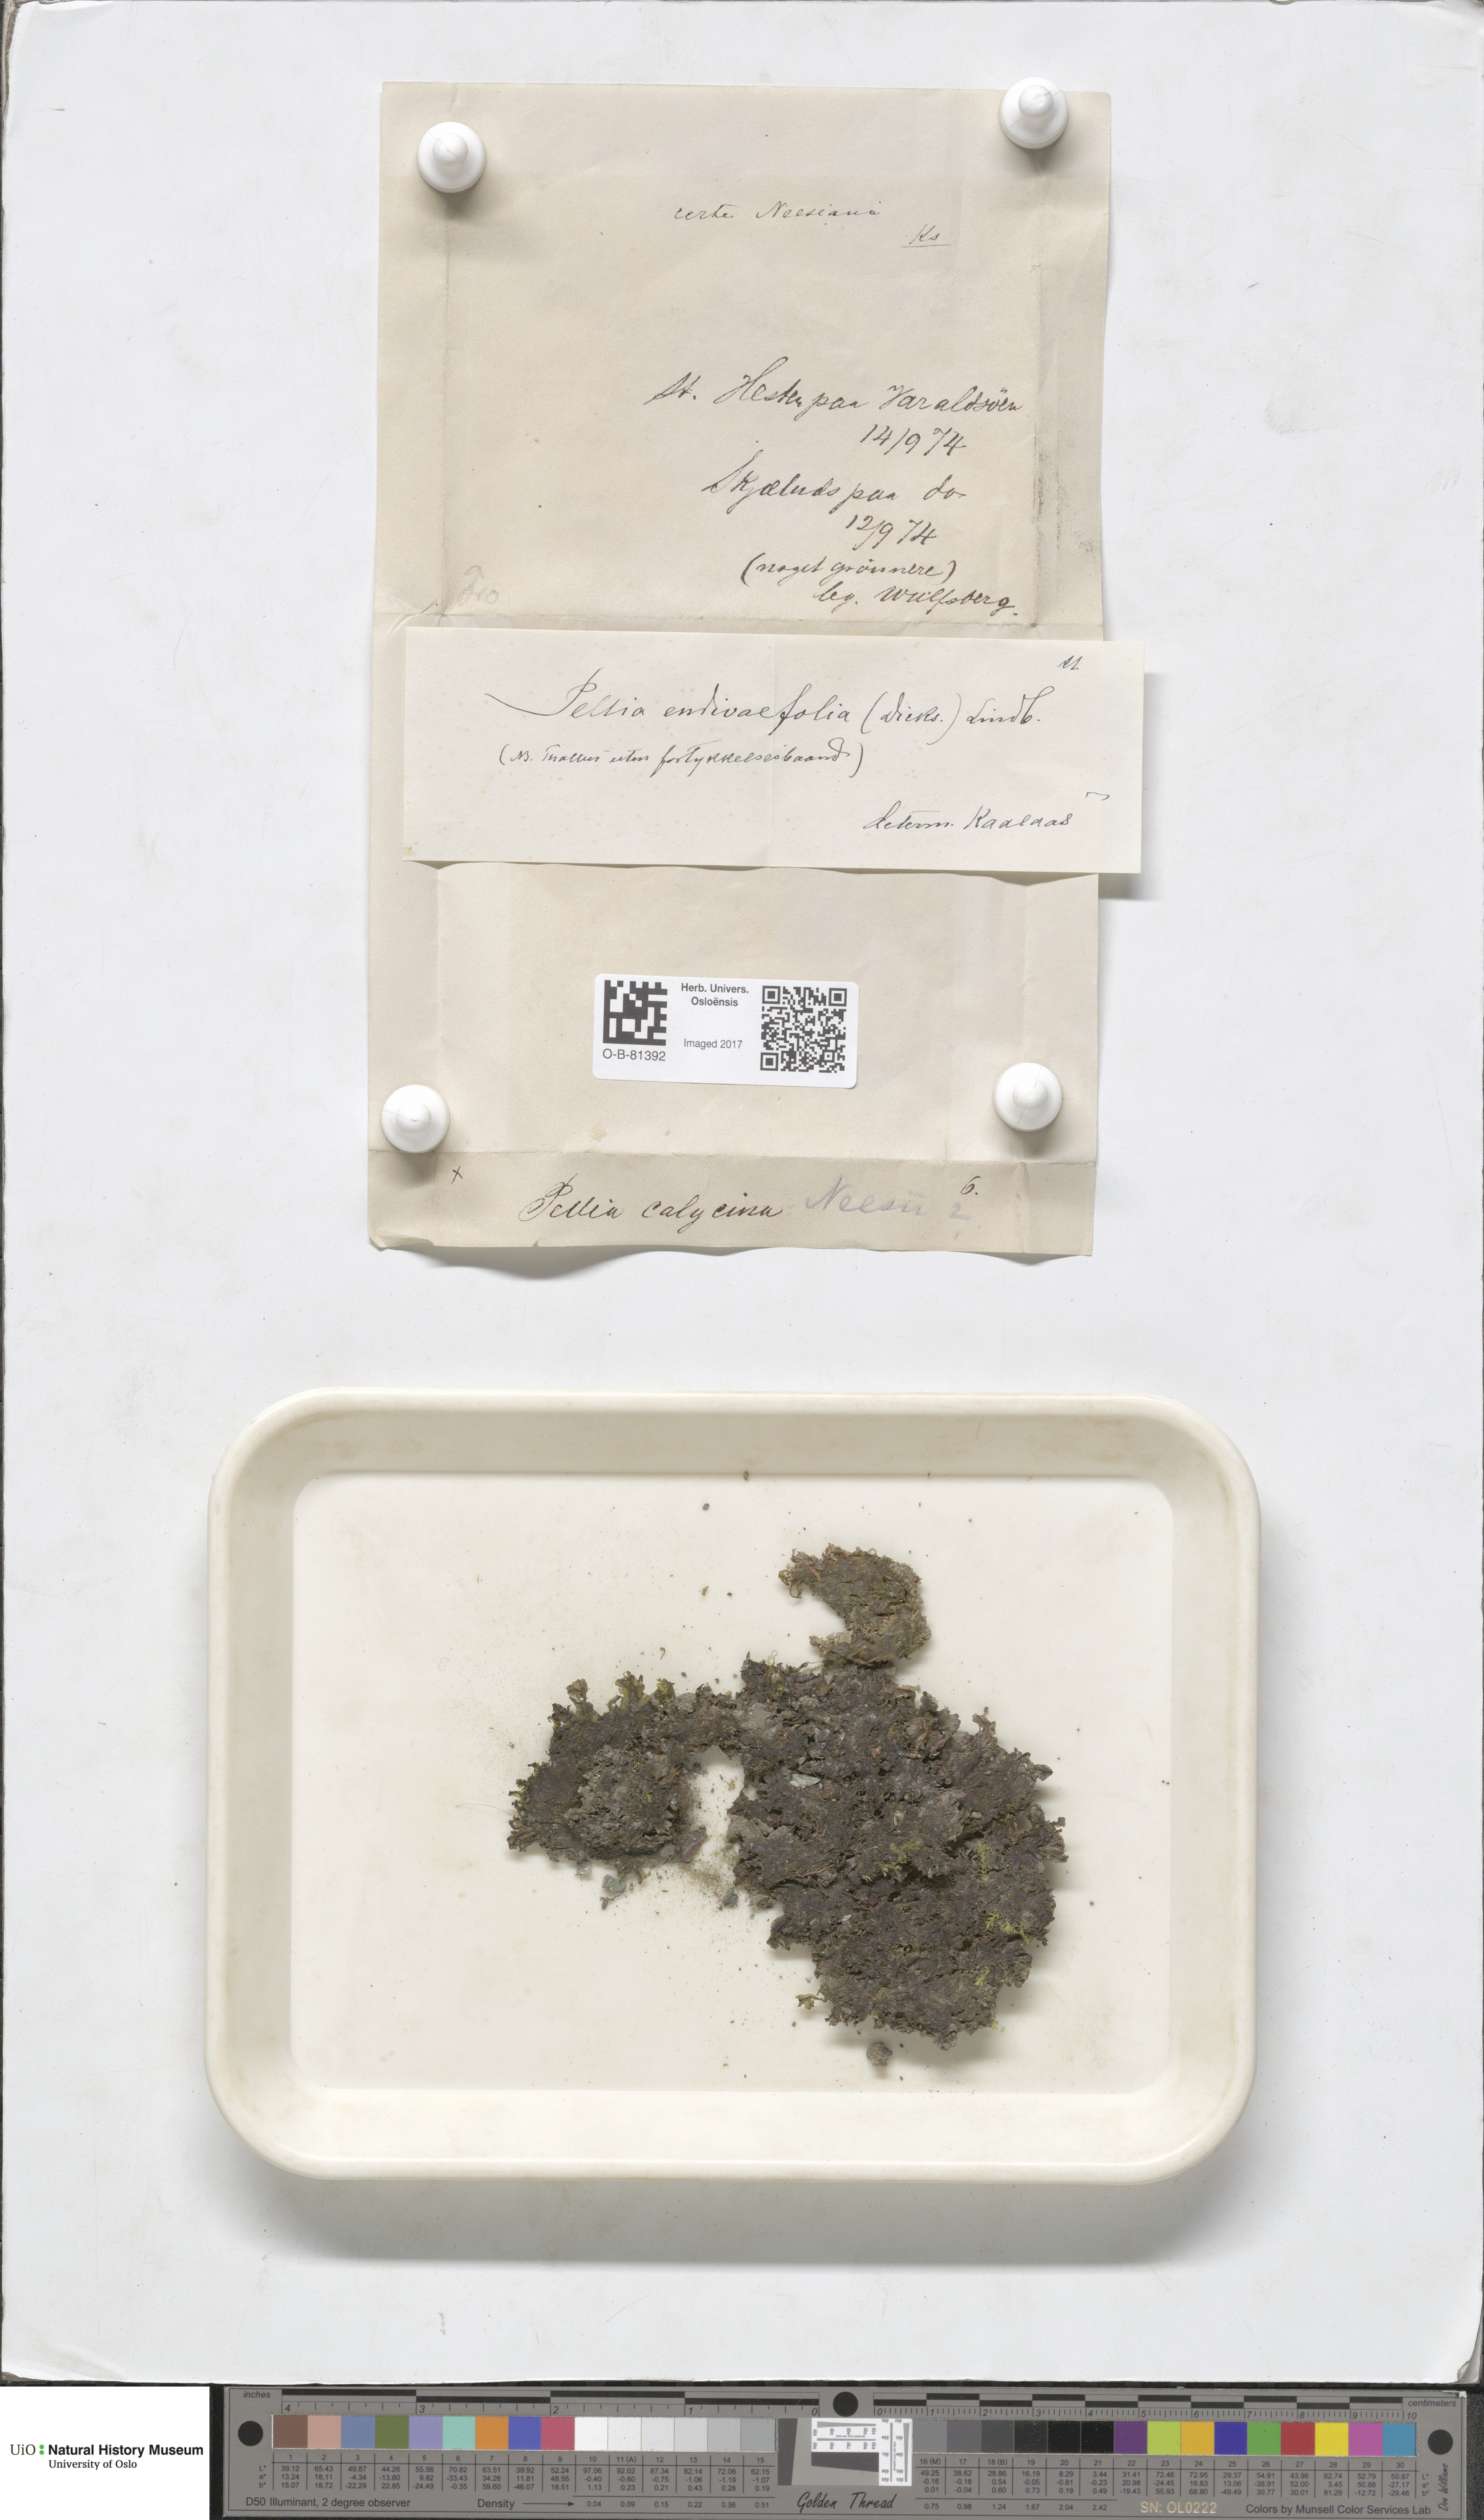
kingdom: Plantae
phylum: Marchantiophyta
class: Jungermanniopsida
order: Pelliales
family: Pelliaceae
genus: Apopellia
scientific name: Apopellia endiviifolia
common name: Endive pellia
